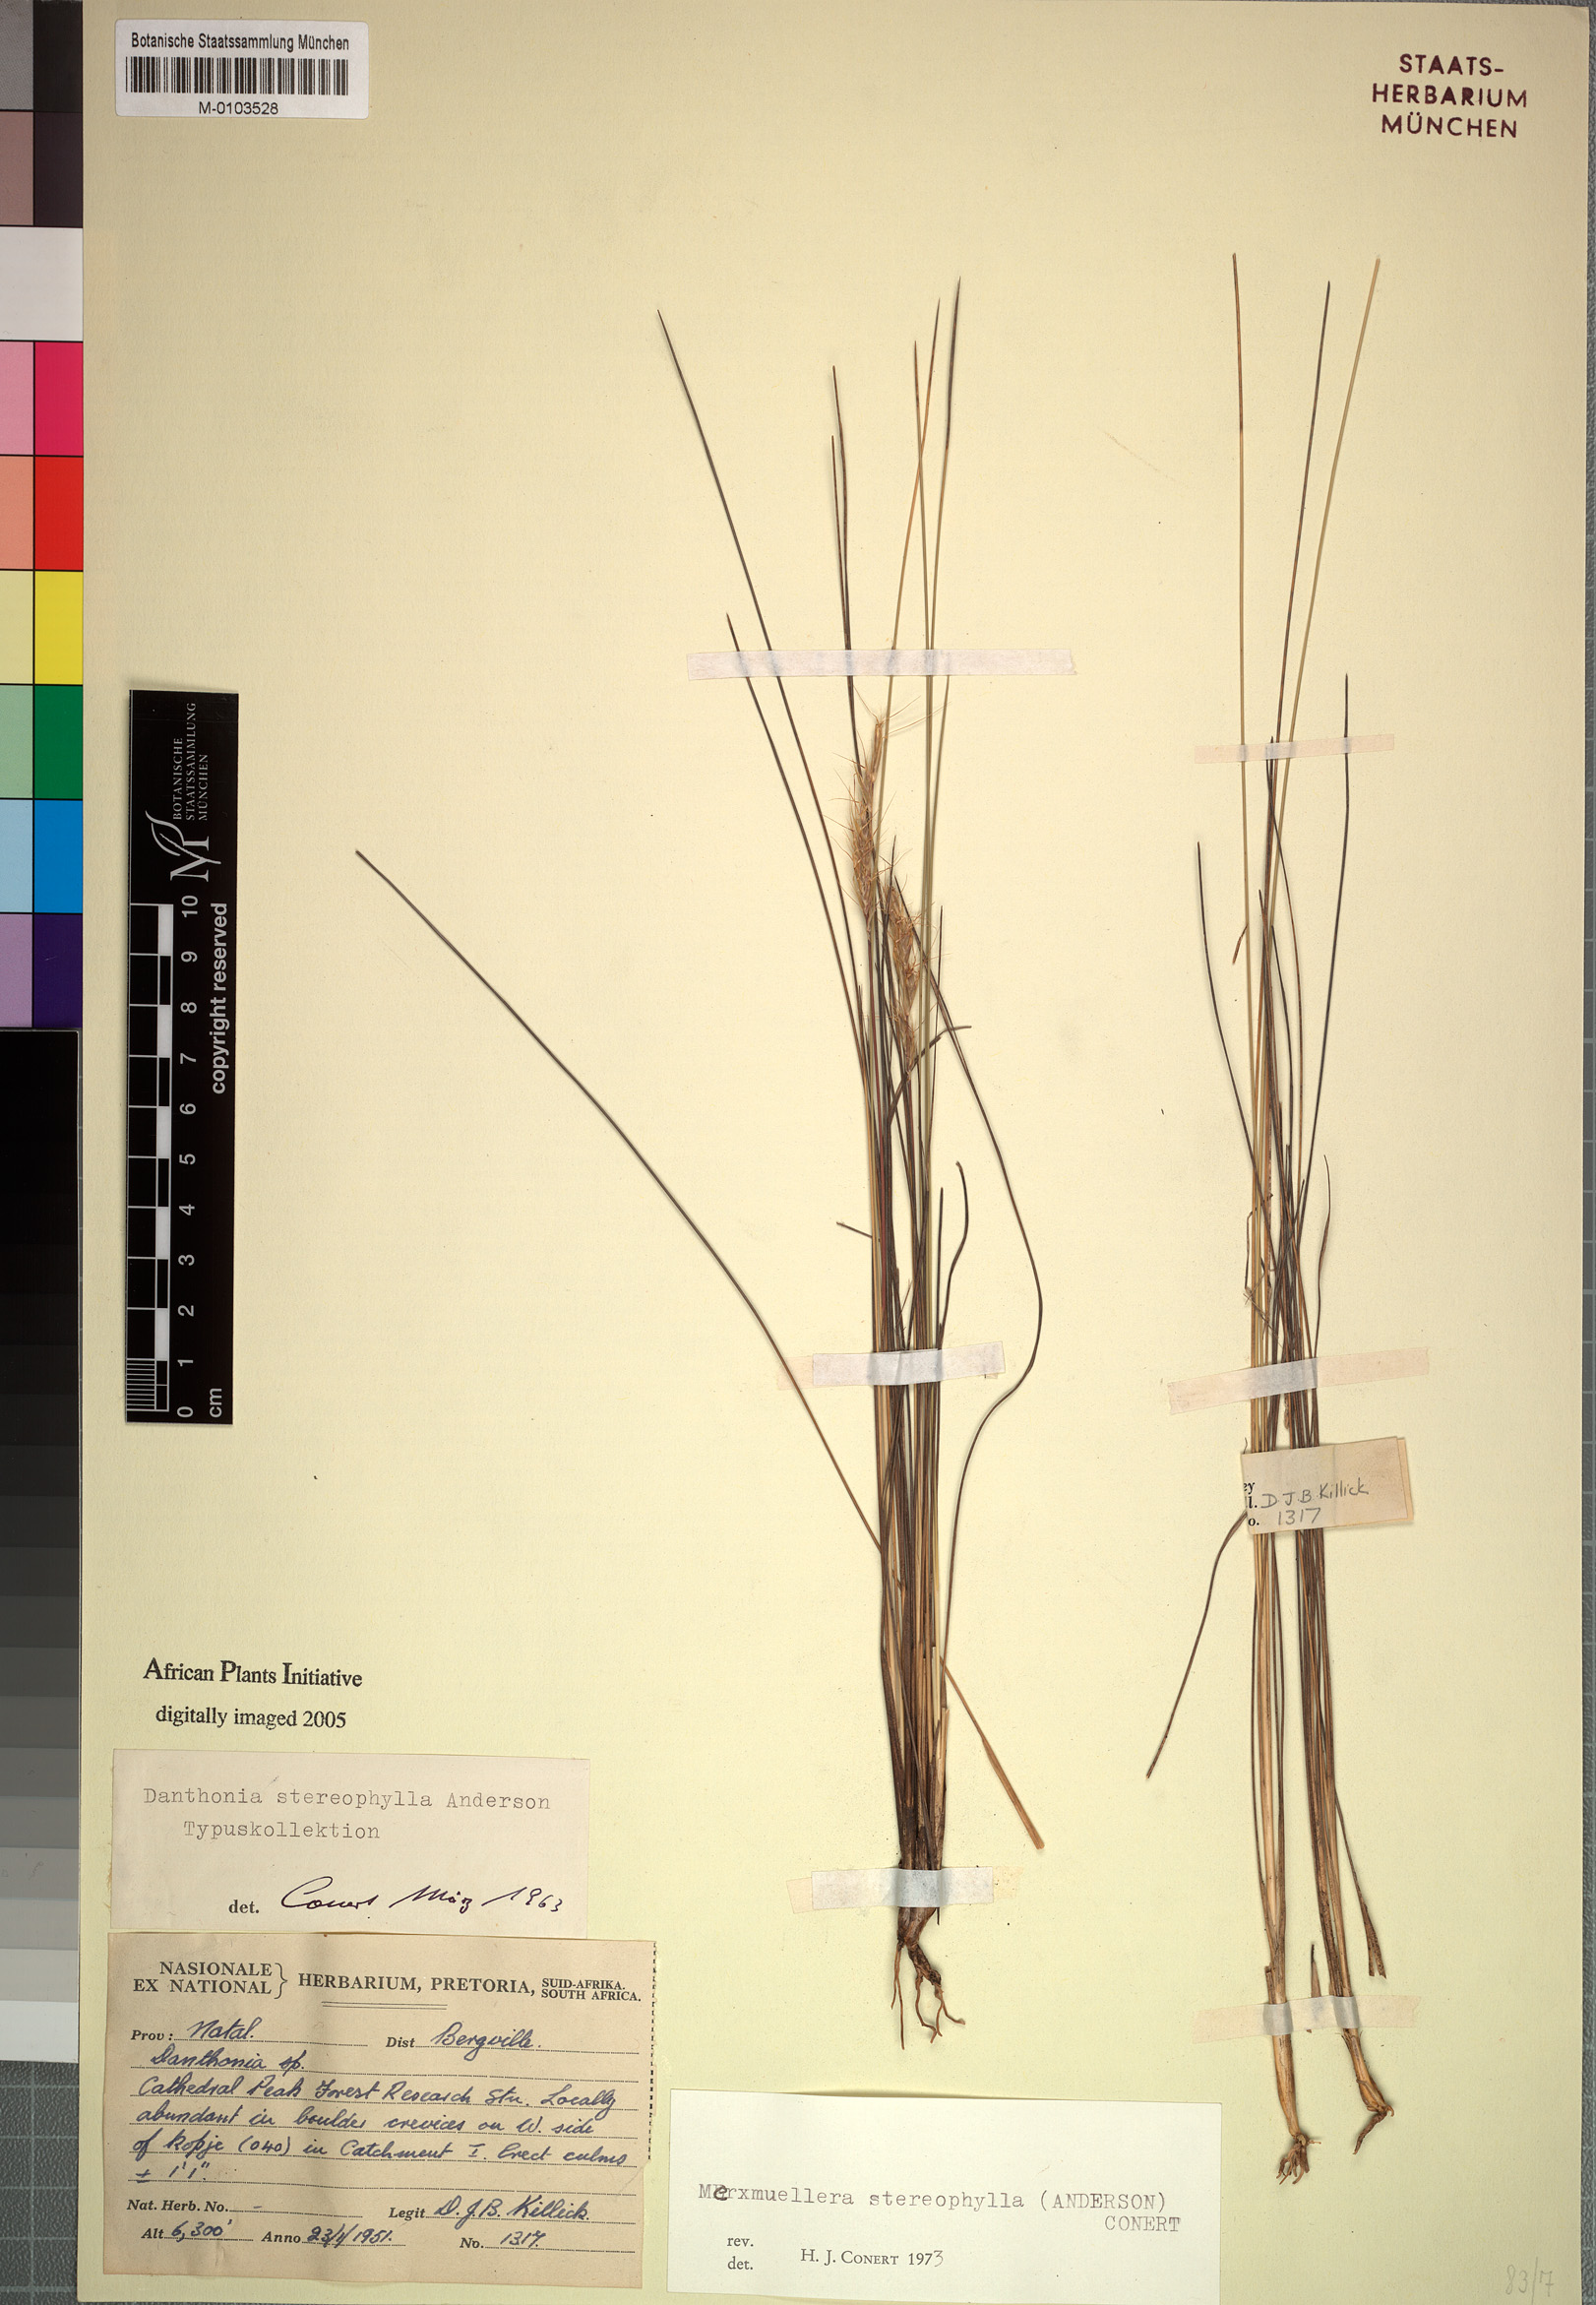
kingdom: Plantae
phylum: Tracheophyta
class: Liliopsida
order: Poales
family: Poaceae
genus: Merxmuellera
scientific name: Merxmuellera stereophylla
